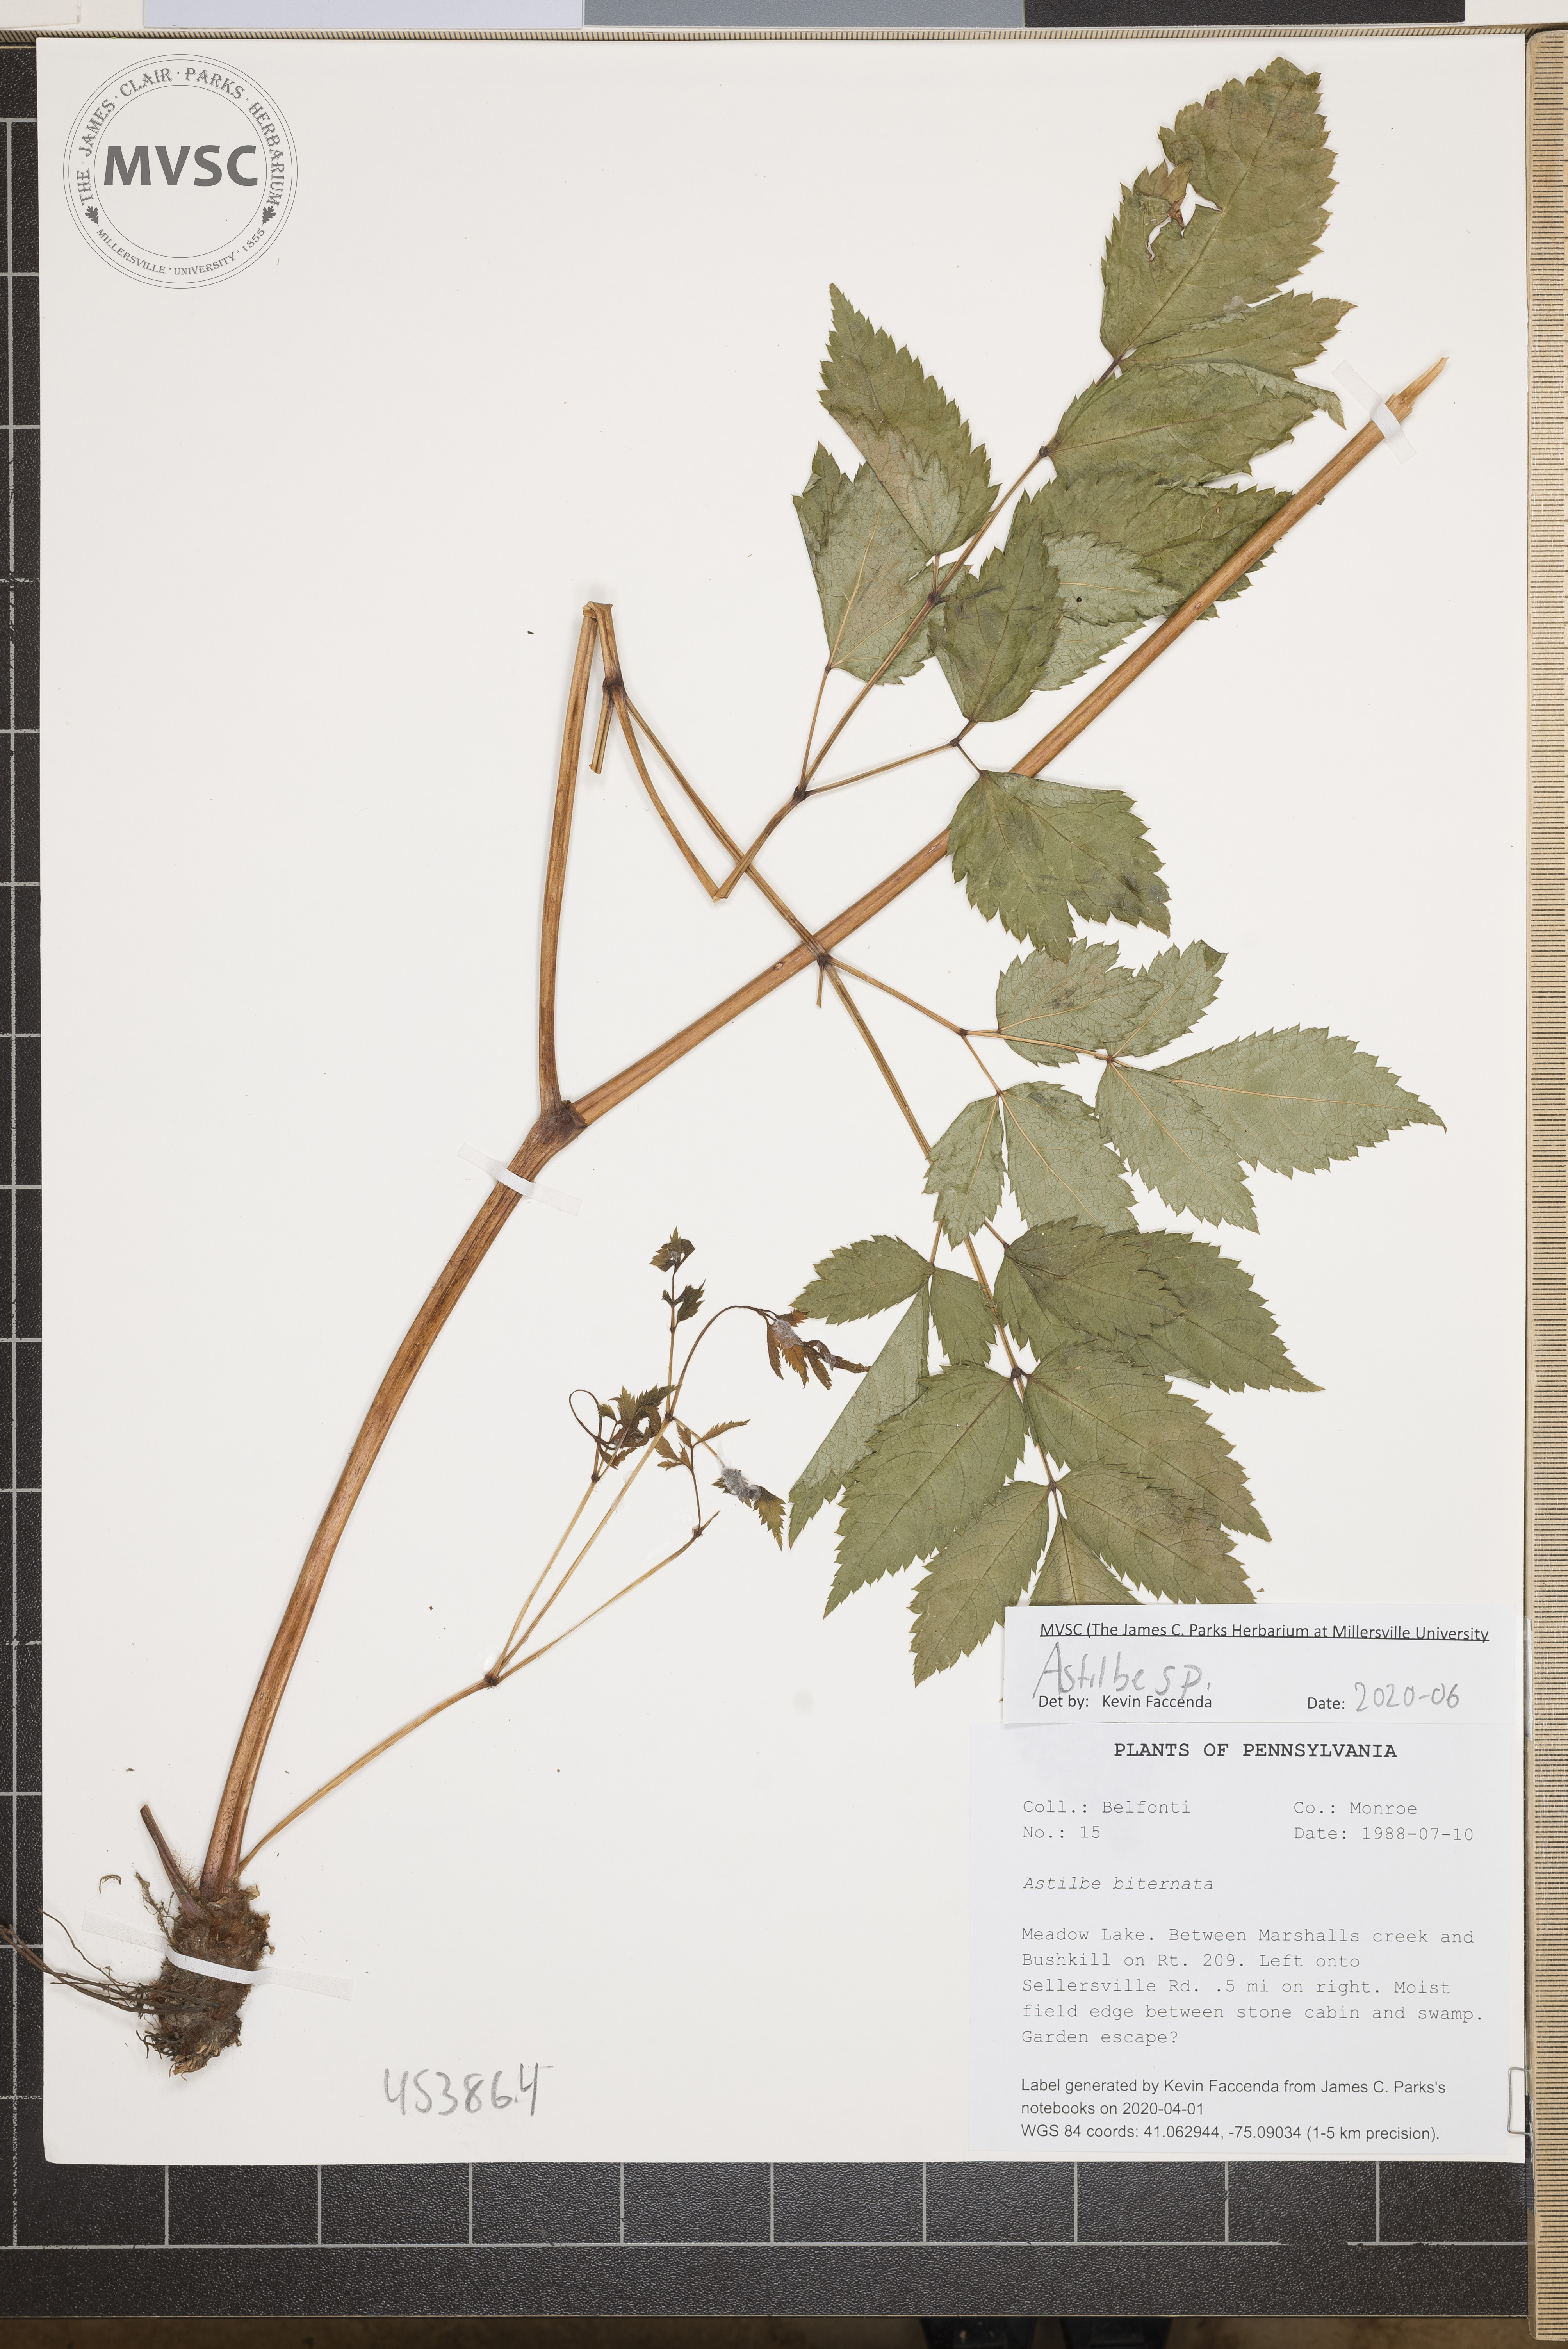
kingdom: Plantae
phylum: Tracheophyta
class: Magnoliopsida
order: Saxifragales
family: Saxifragaceae
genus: Astilbe
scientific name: Astilbe
